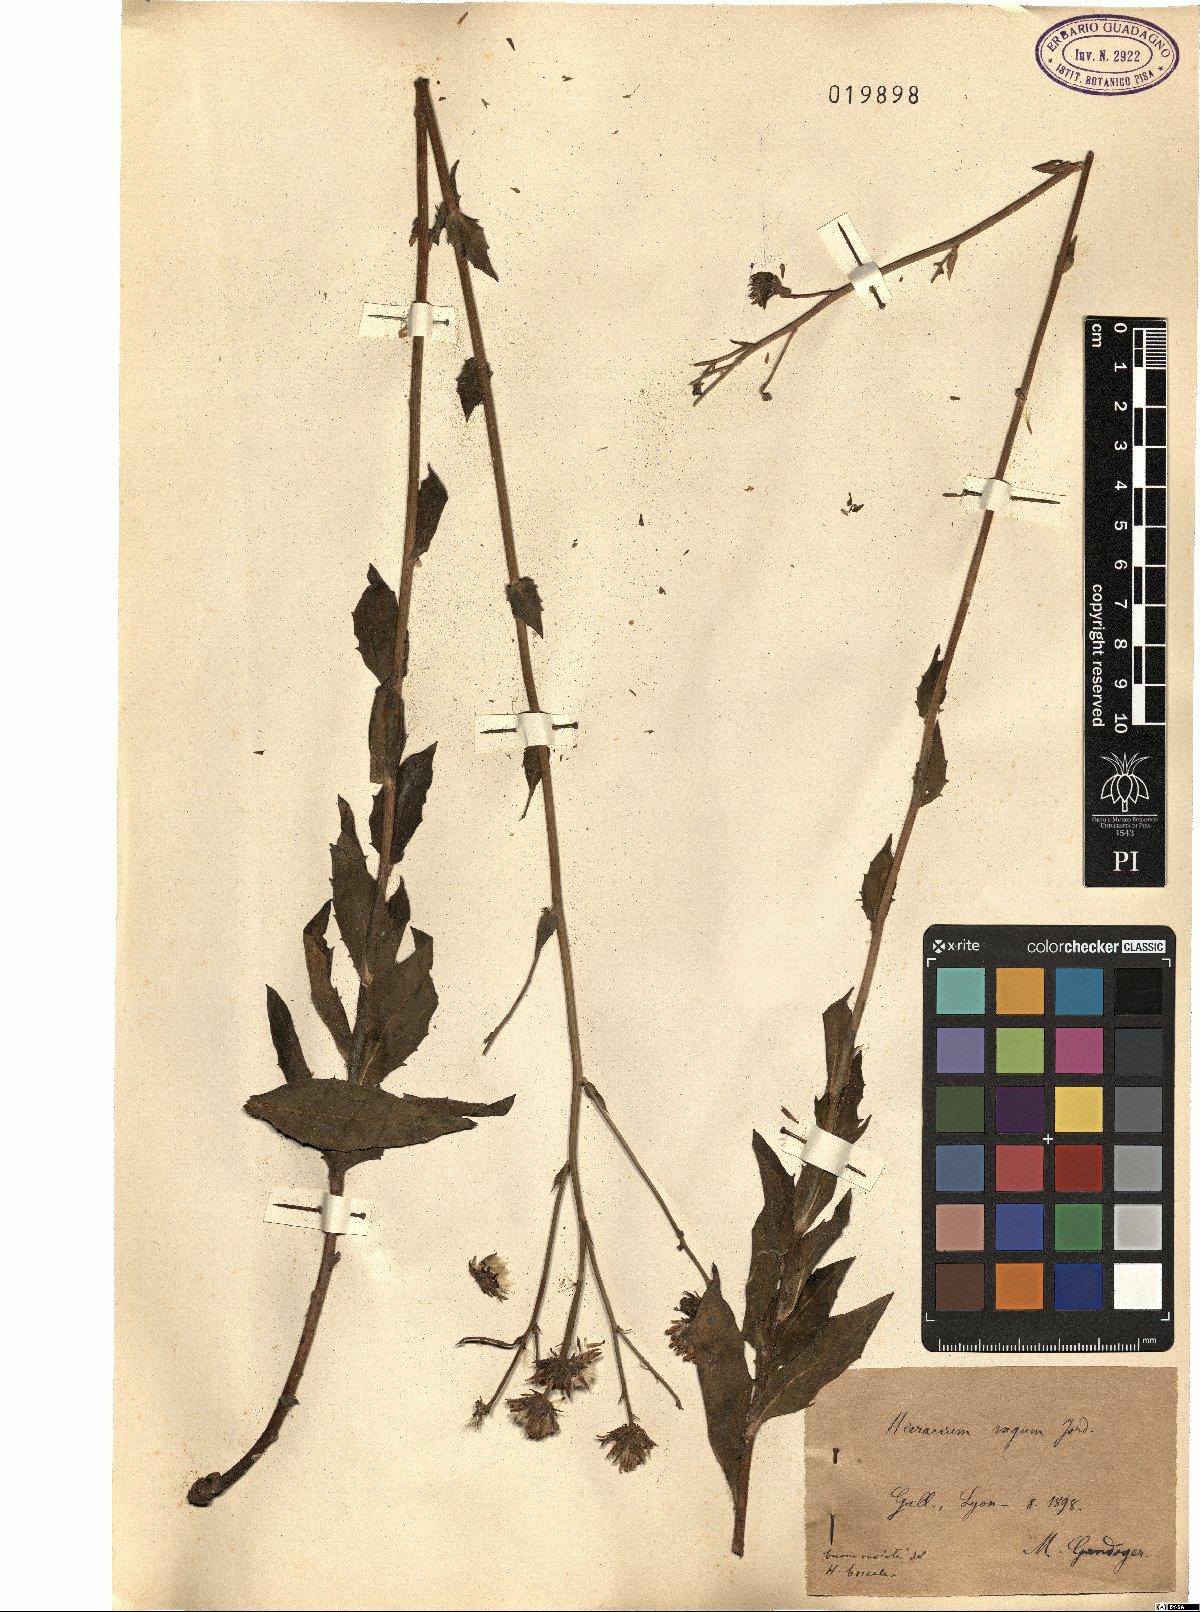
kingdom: Plantae
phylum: Tracheophyta
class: Magnoliopsida
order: Asterales
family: Asteraceae
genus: Hieracium
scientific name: Hieracium sabaudum
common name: New england hawkweed
